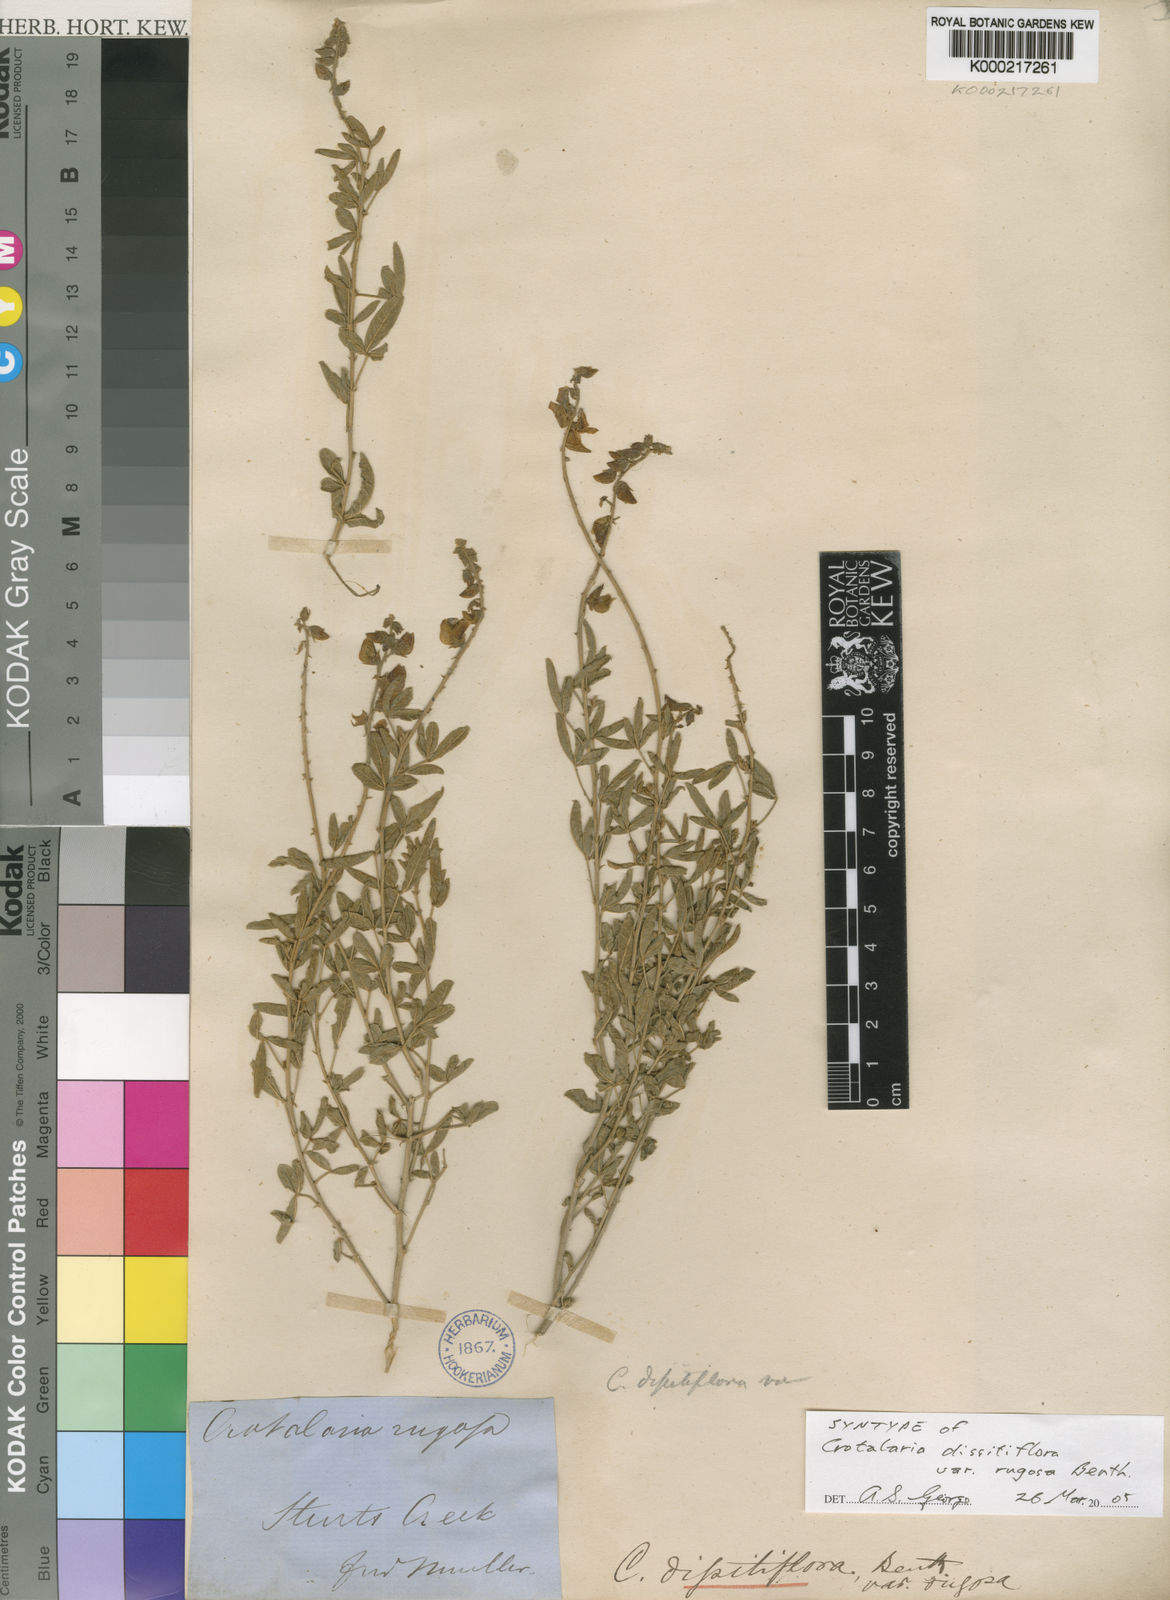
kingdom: Plantae
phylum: Tracheophyta
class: Magnoliopsida
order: Fabales
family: Fabaceae
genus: Crotalaria
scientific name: Crotalaria dissitiflora
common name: Grey rattlepod
